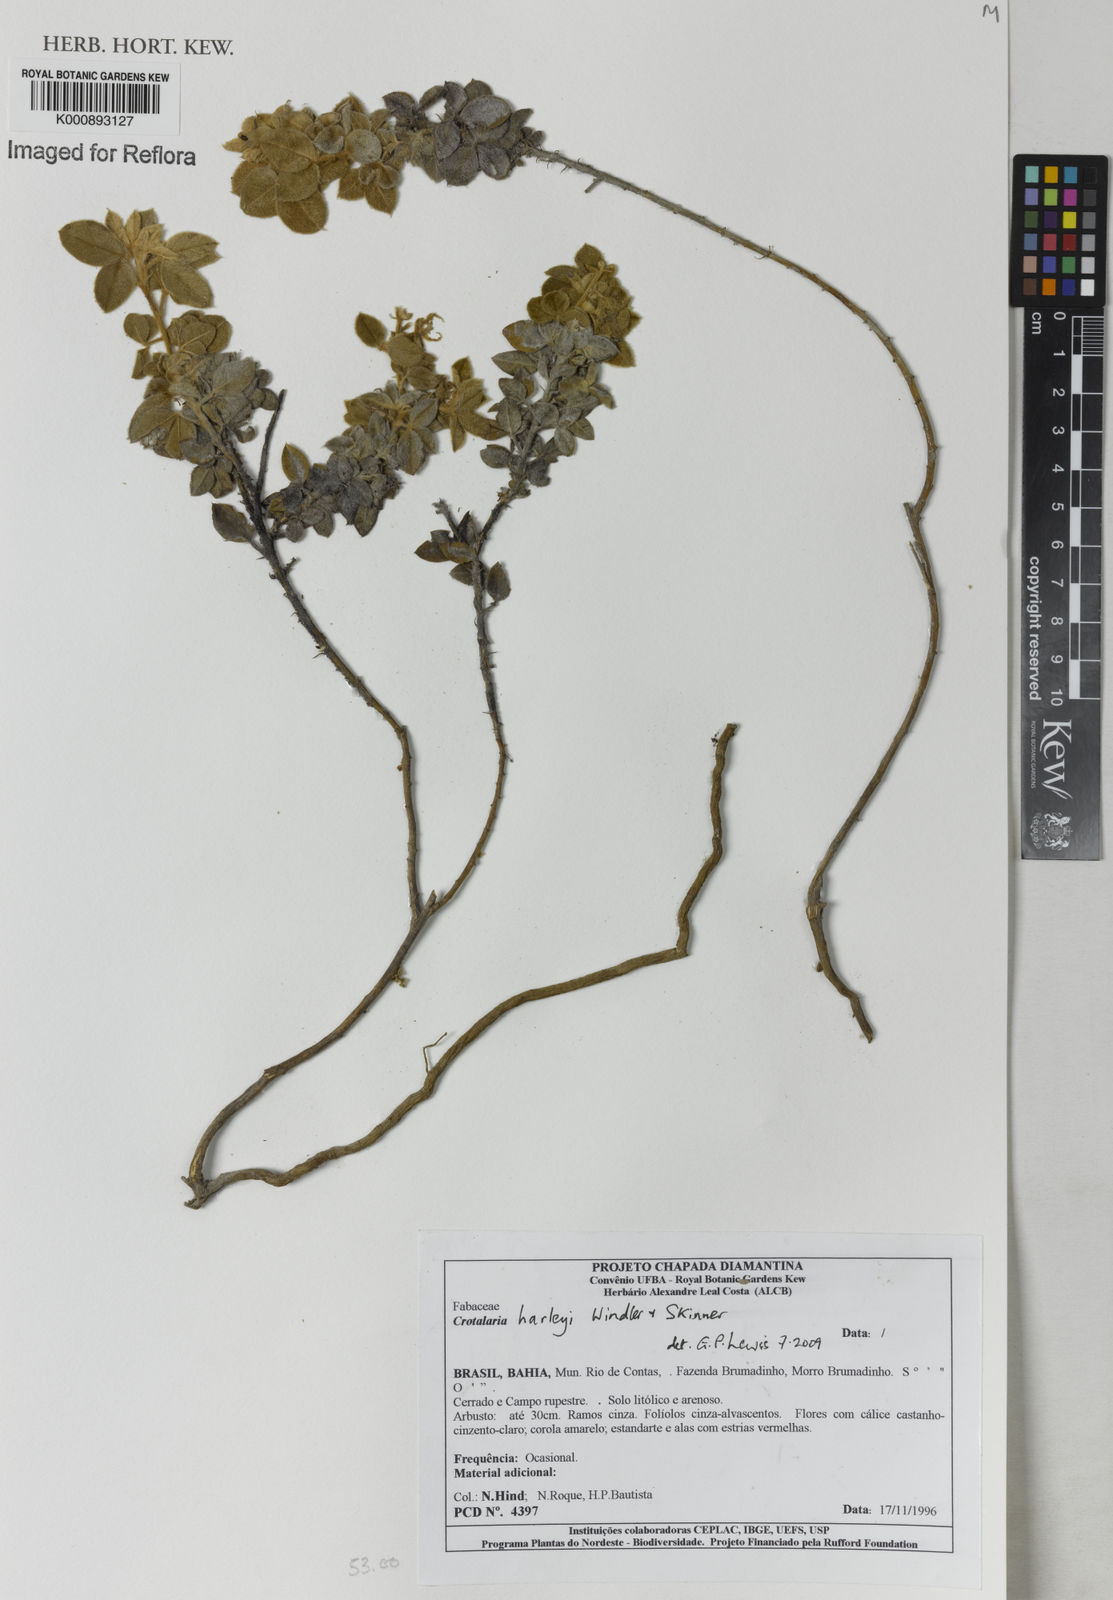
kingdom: Plantae
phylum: Tracheophyta
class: Magnoliopsida
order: Fabales
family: Fabaceae
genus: Crotalaria
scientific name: Crotalaria harleyi
